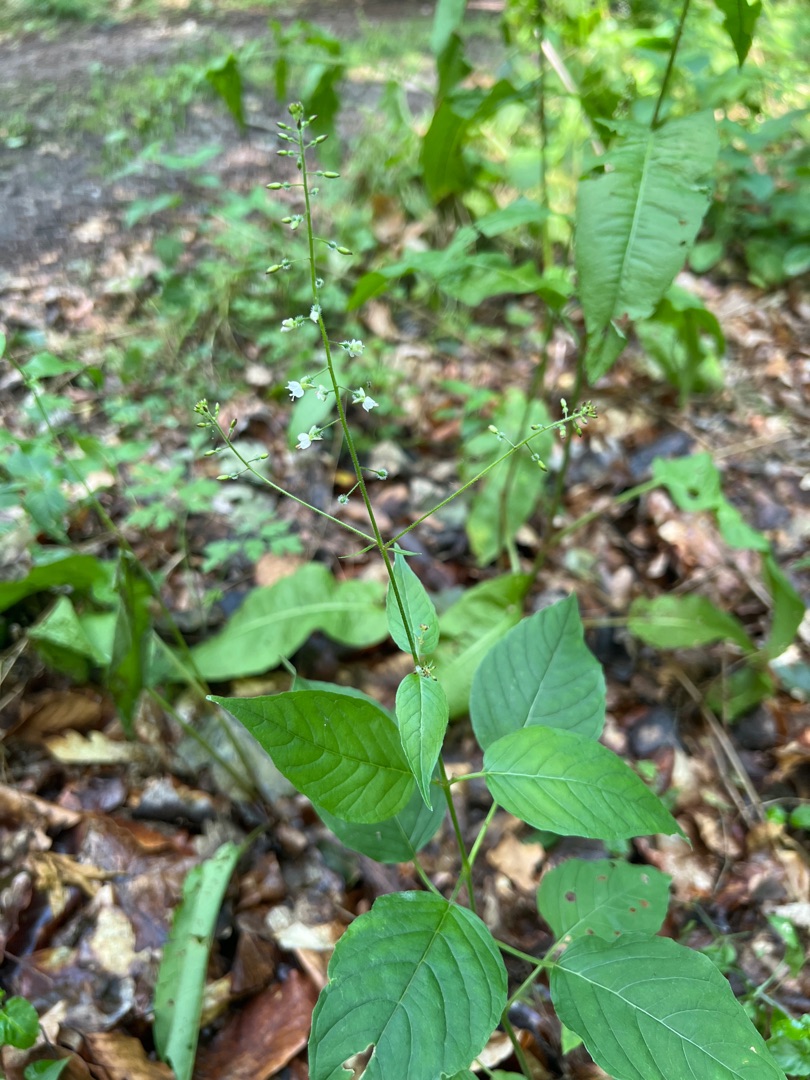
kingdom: Plantae
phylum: Tracheophyta
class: Magnoliopsida
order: Myrtales
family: Onagraceae
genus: Circaea
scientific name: Circaea lutetiana
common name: Dunet steffensurt
